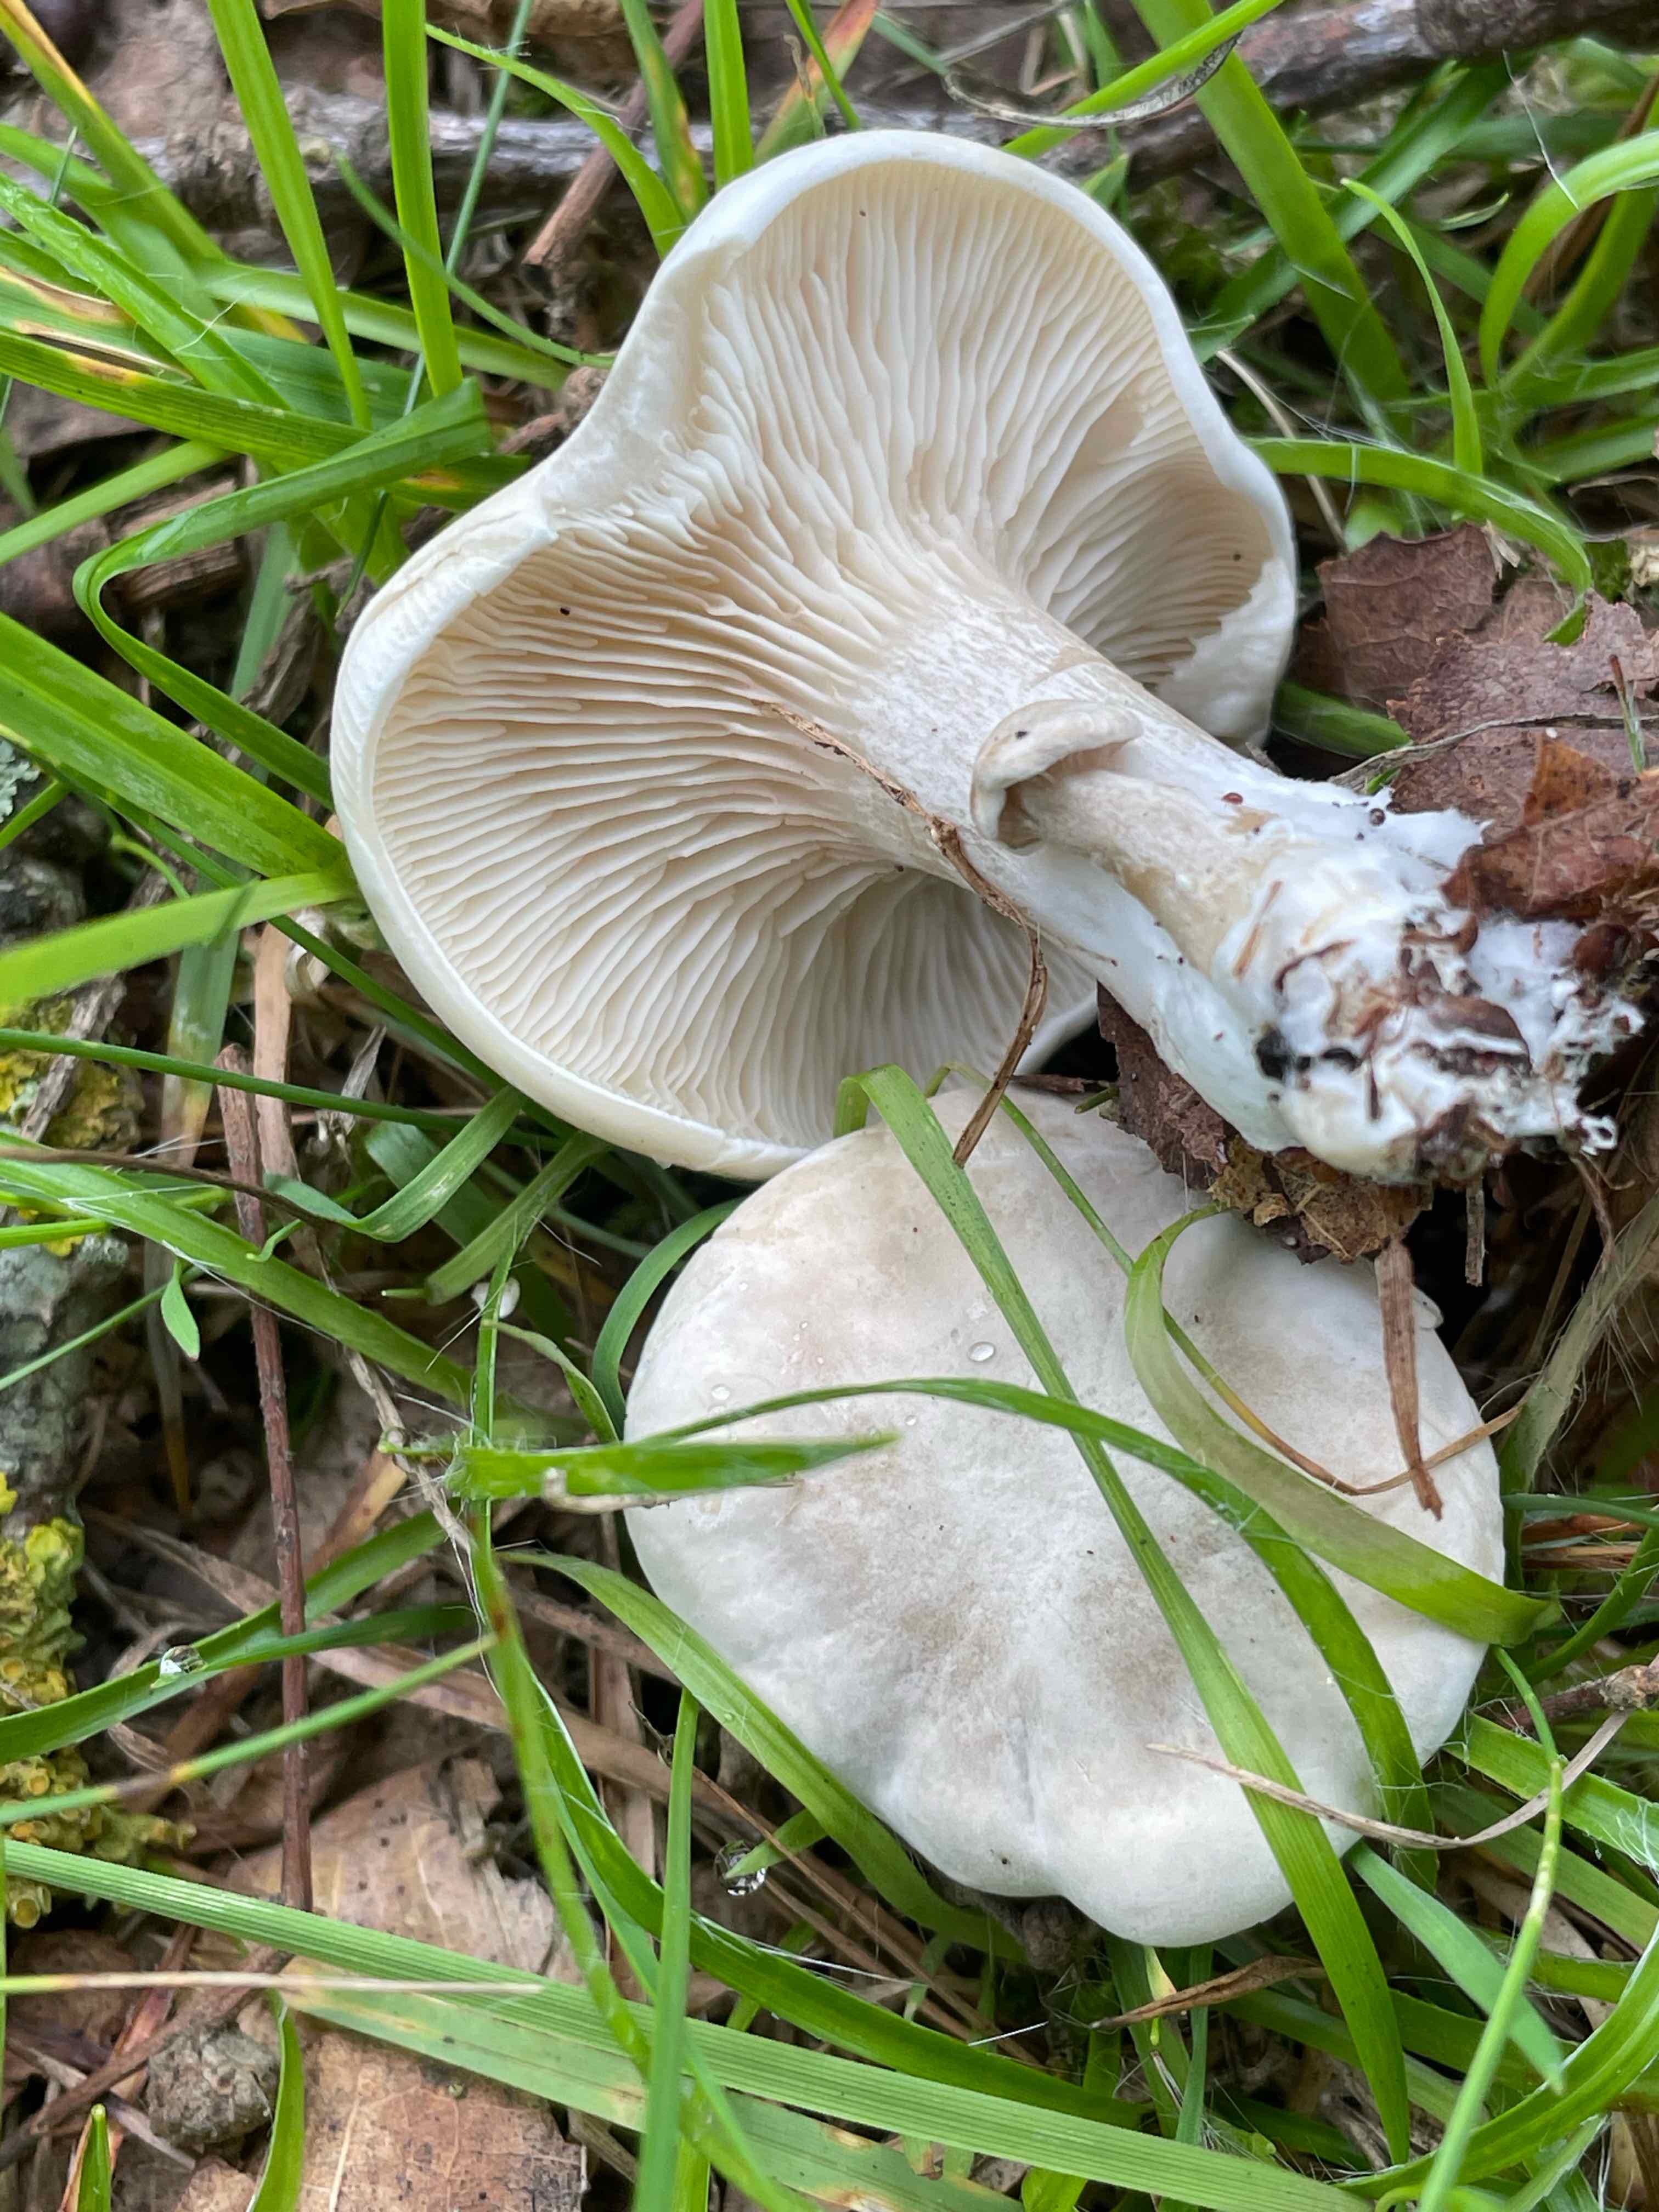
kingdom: Fungi
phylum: Basidiomycota
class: Agaricomycetes
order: Agaricales
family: Entolomataceae
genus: Clitopilus
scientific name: Clitopilus prunulus
